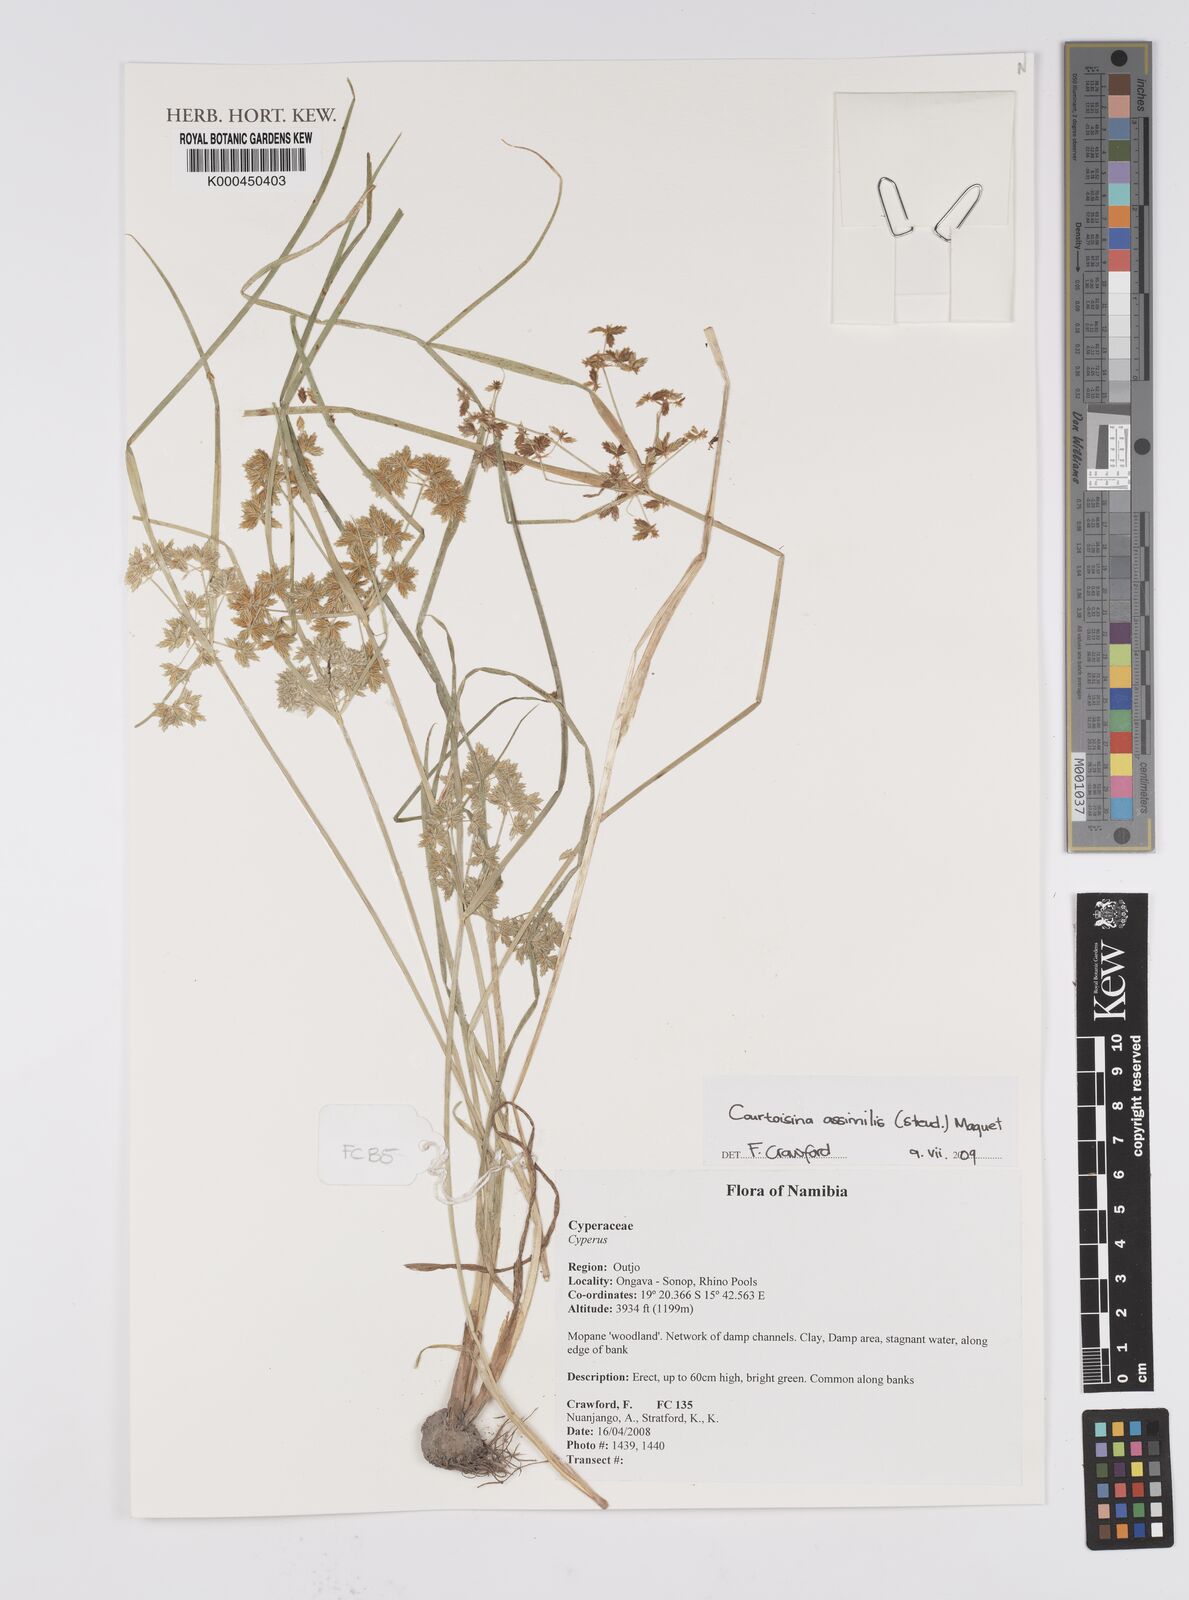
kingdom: Plantae
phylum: Tracheophyta
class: Liliopsida
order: Poales
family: Cyperaceae
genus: Cyperus
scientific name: Cyperus assimilis
